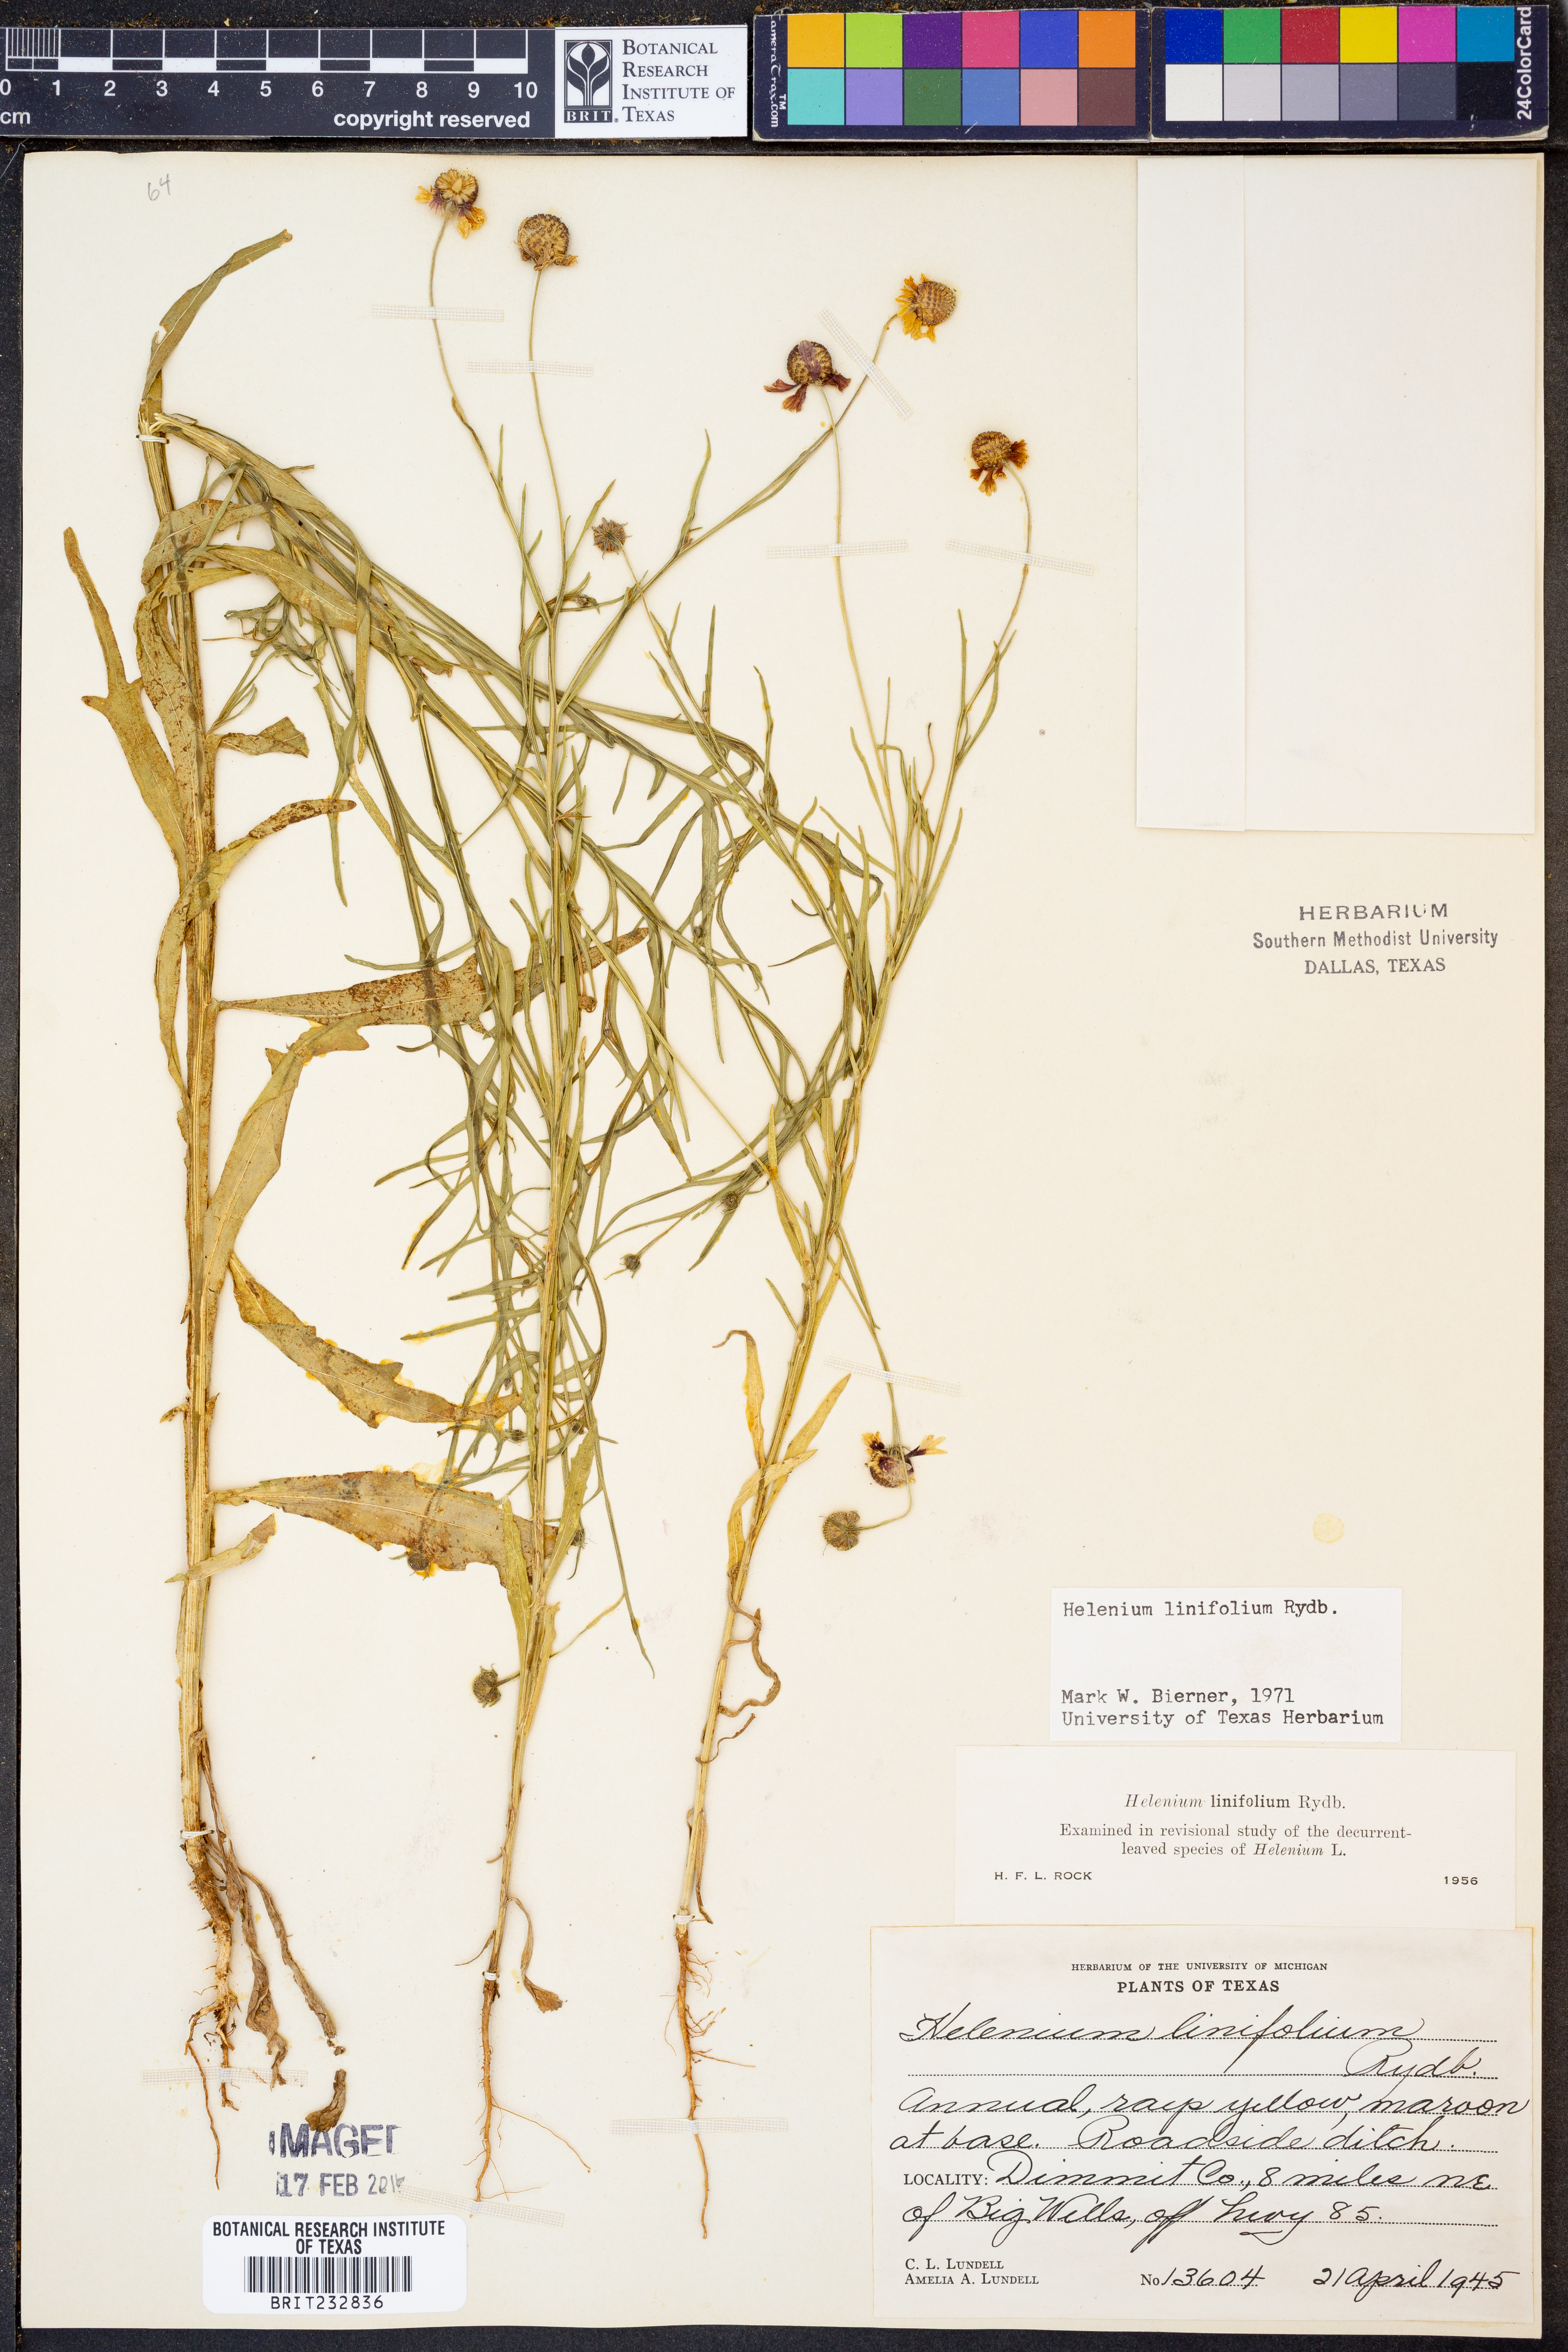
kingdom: Plantae
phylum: Tracheophyta
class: Magnoliopsida
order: Asterales
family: Asteraceae
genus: Helenium
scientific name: Helenium linifolium
